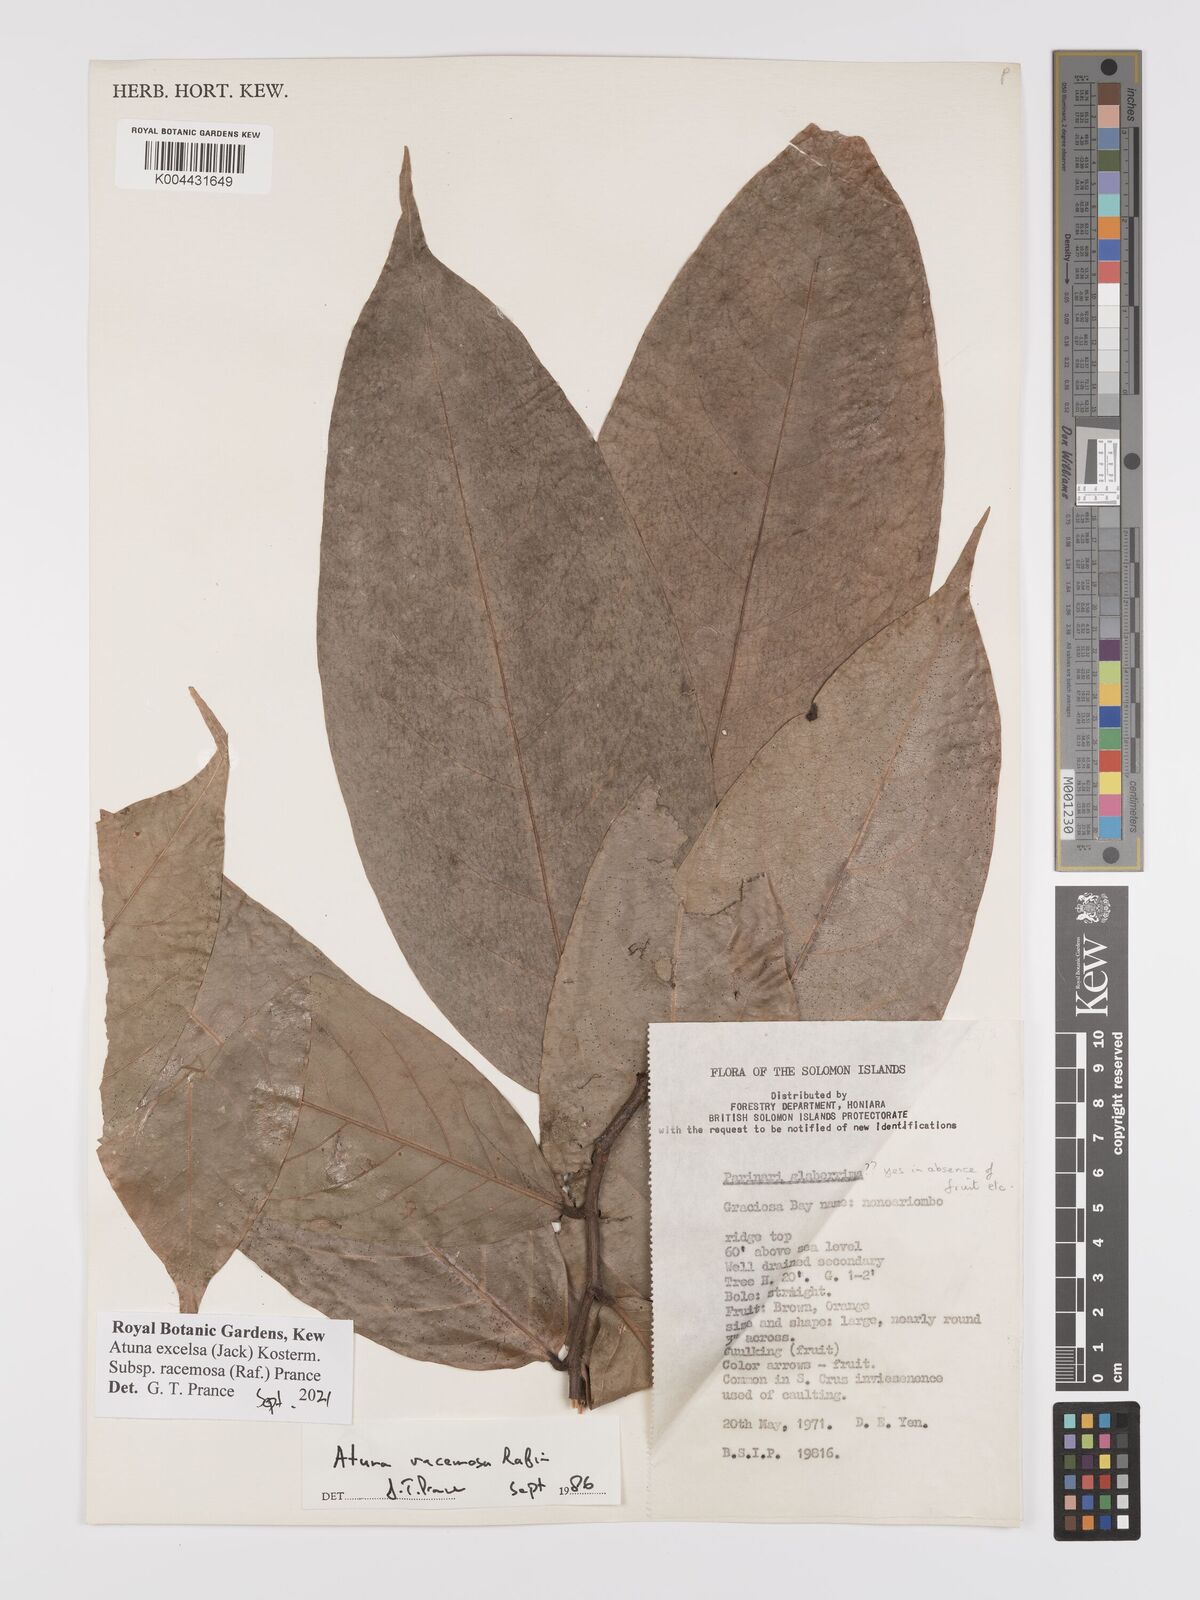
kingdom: Plantae
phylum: Tracheophyta
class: Magnoliopsida
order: Malpighiales
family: Chrysobalanaceae
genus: Atuna
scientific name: Atuna excelsa
